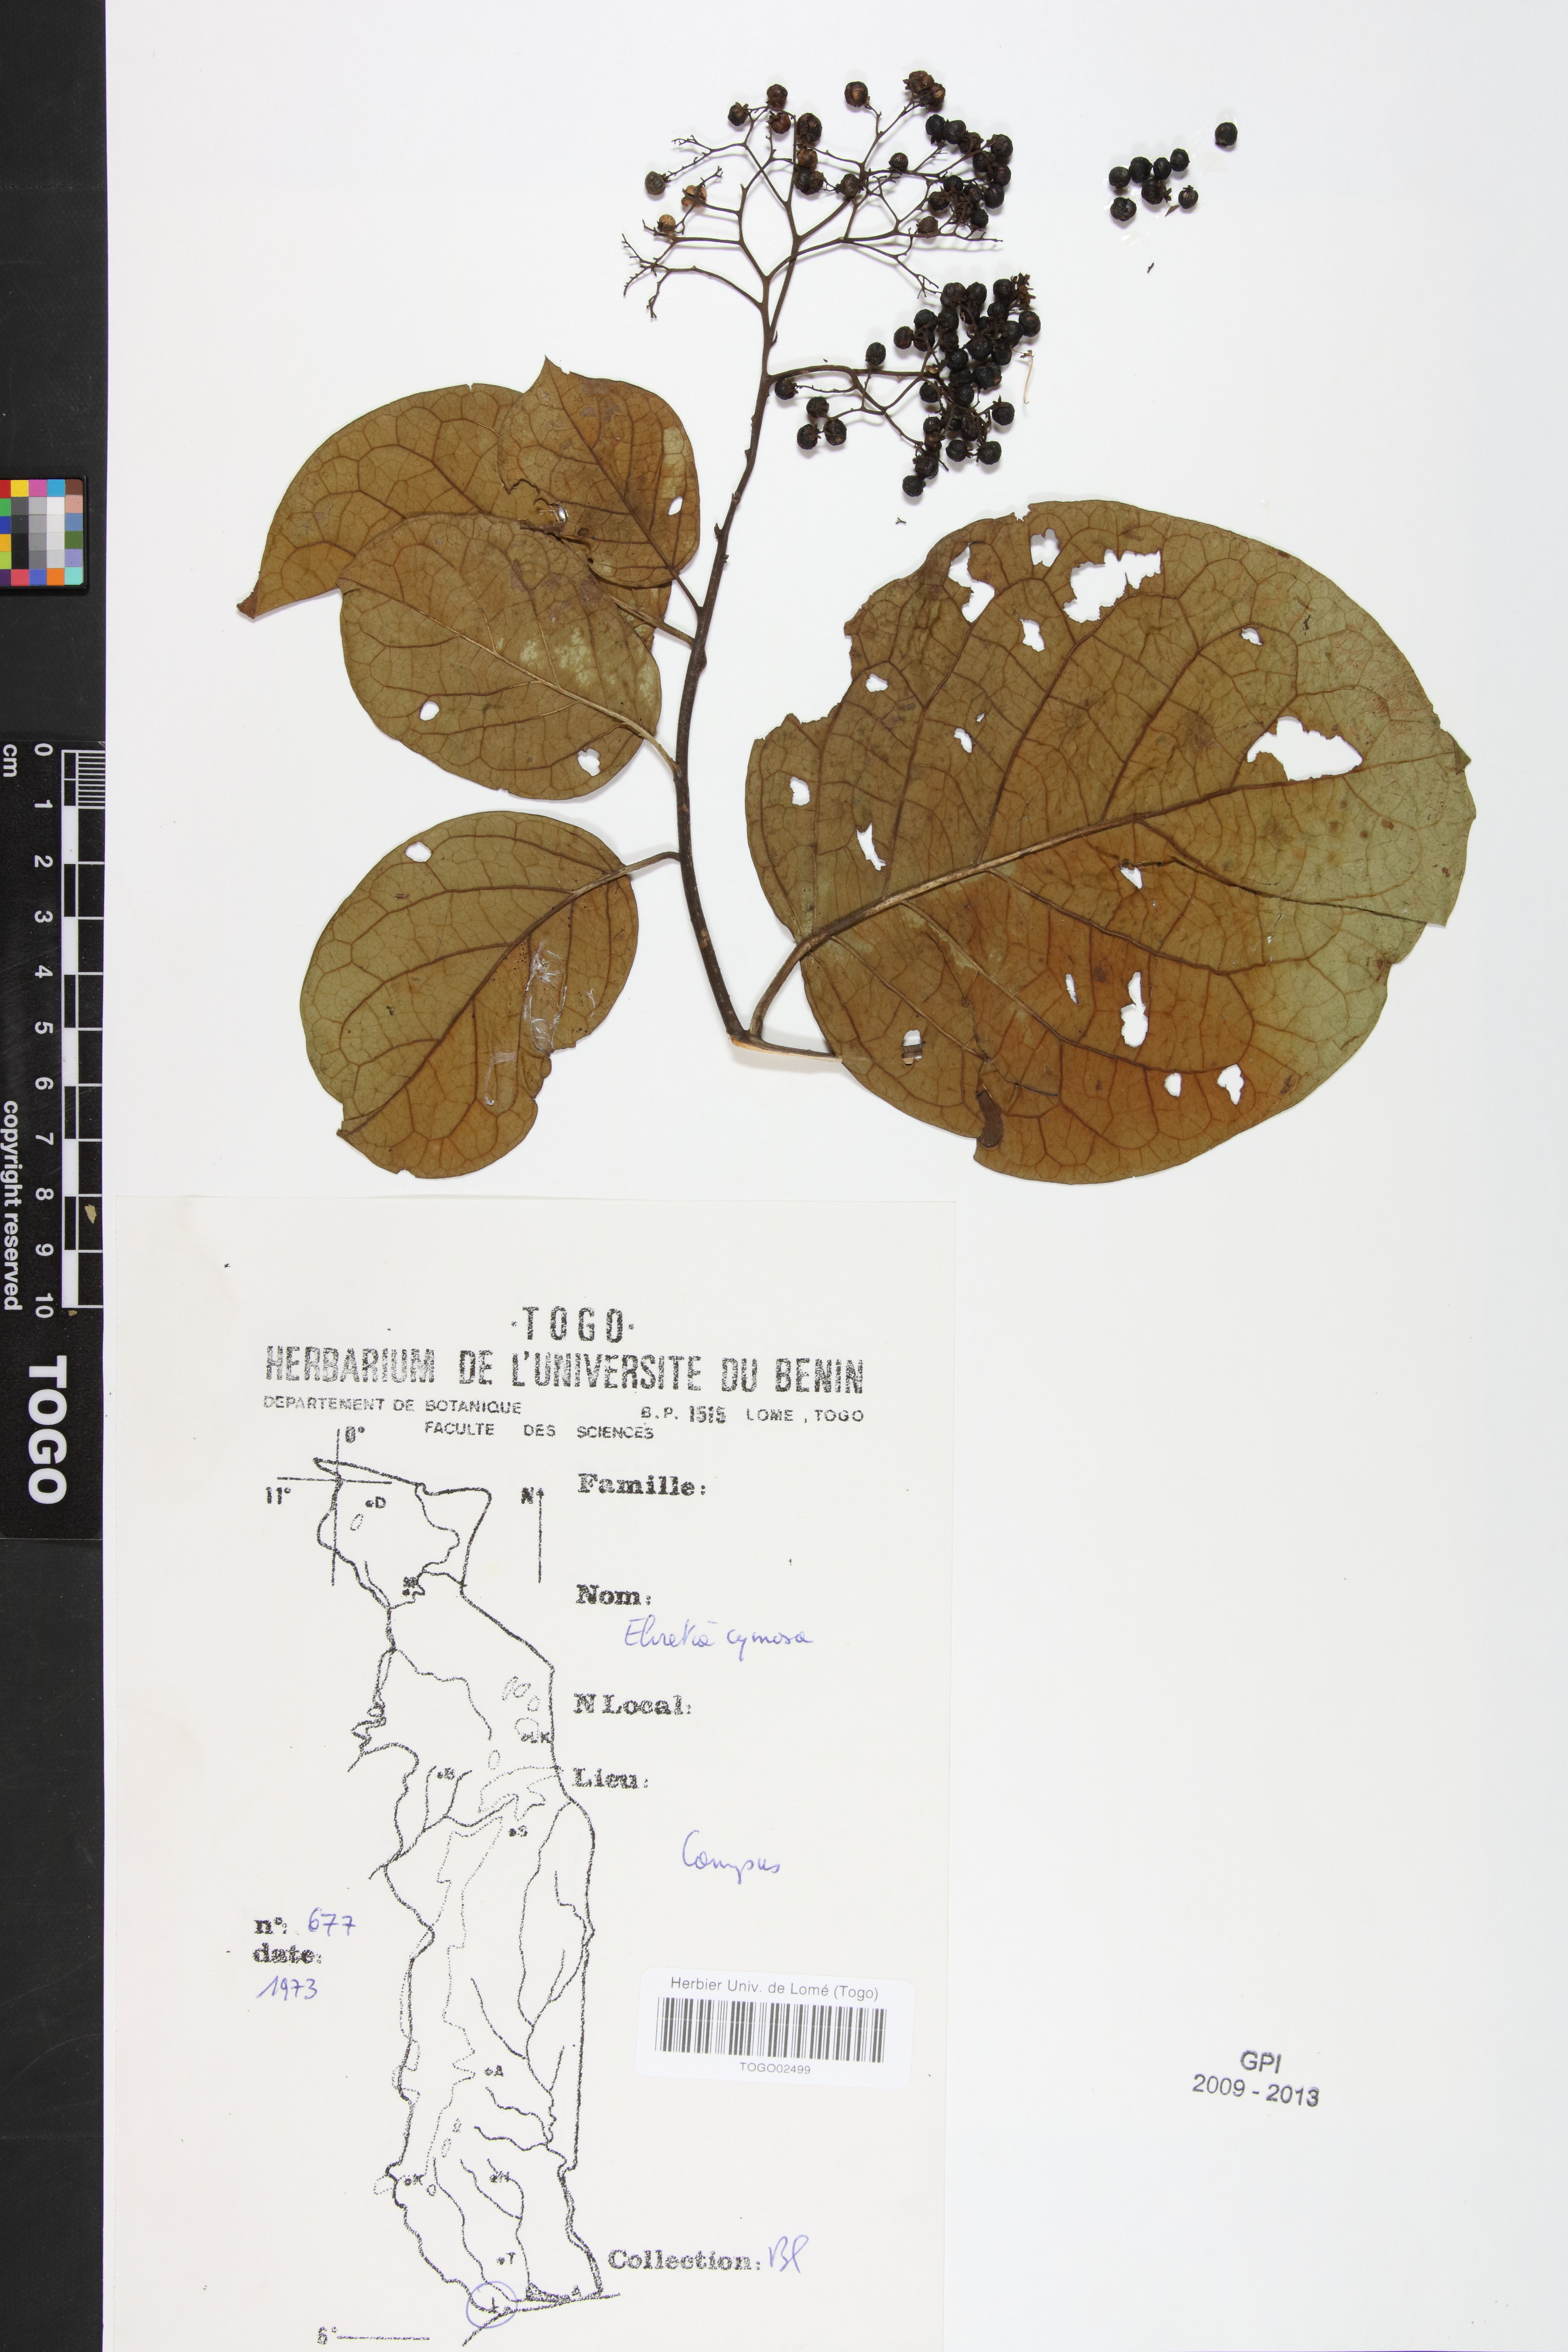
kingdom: Plantae
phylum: Tracheophyta
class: Magnoliopsida
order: Boraginales
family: Ehretiaceae
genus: Ehretia
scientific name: Ehretia cymosa
